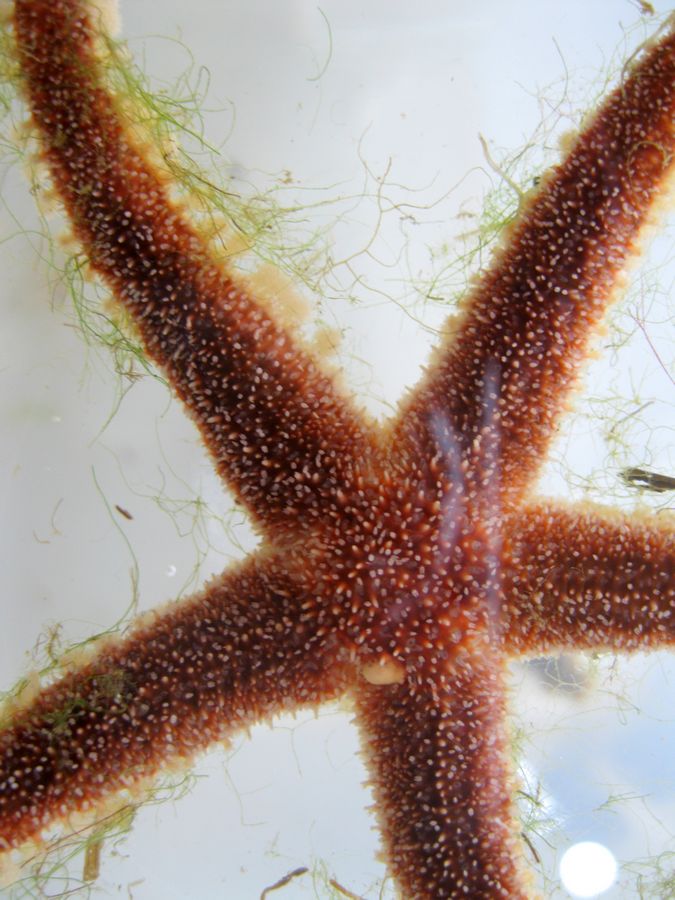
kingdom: Animalia
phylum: Echinodermata
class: Asteroidea
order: Forcipulatida
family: Asteriidae
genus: Urasterias
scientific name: Urasterias lincki
